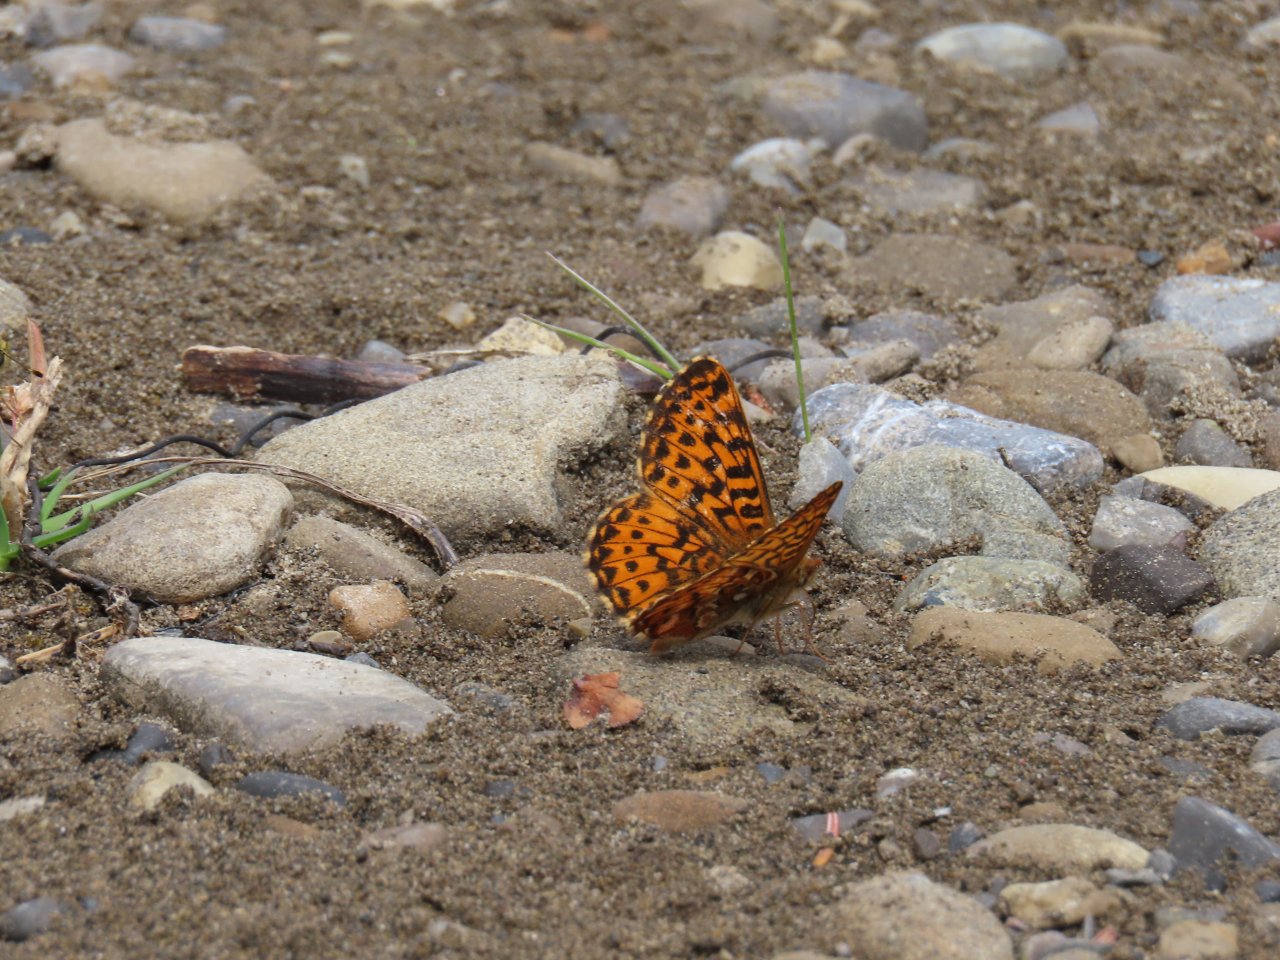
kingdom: Animalia
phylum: Arthropoda
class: Insecta
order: Lepidoptera
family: Nymphalidae
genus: Boloria
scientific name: Boloria chariclea
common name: Arctic Fritillary
